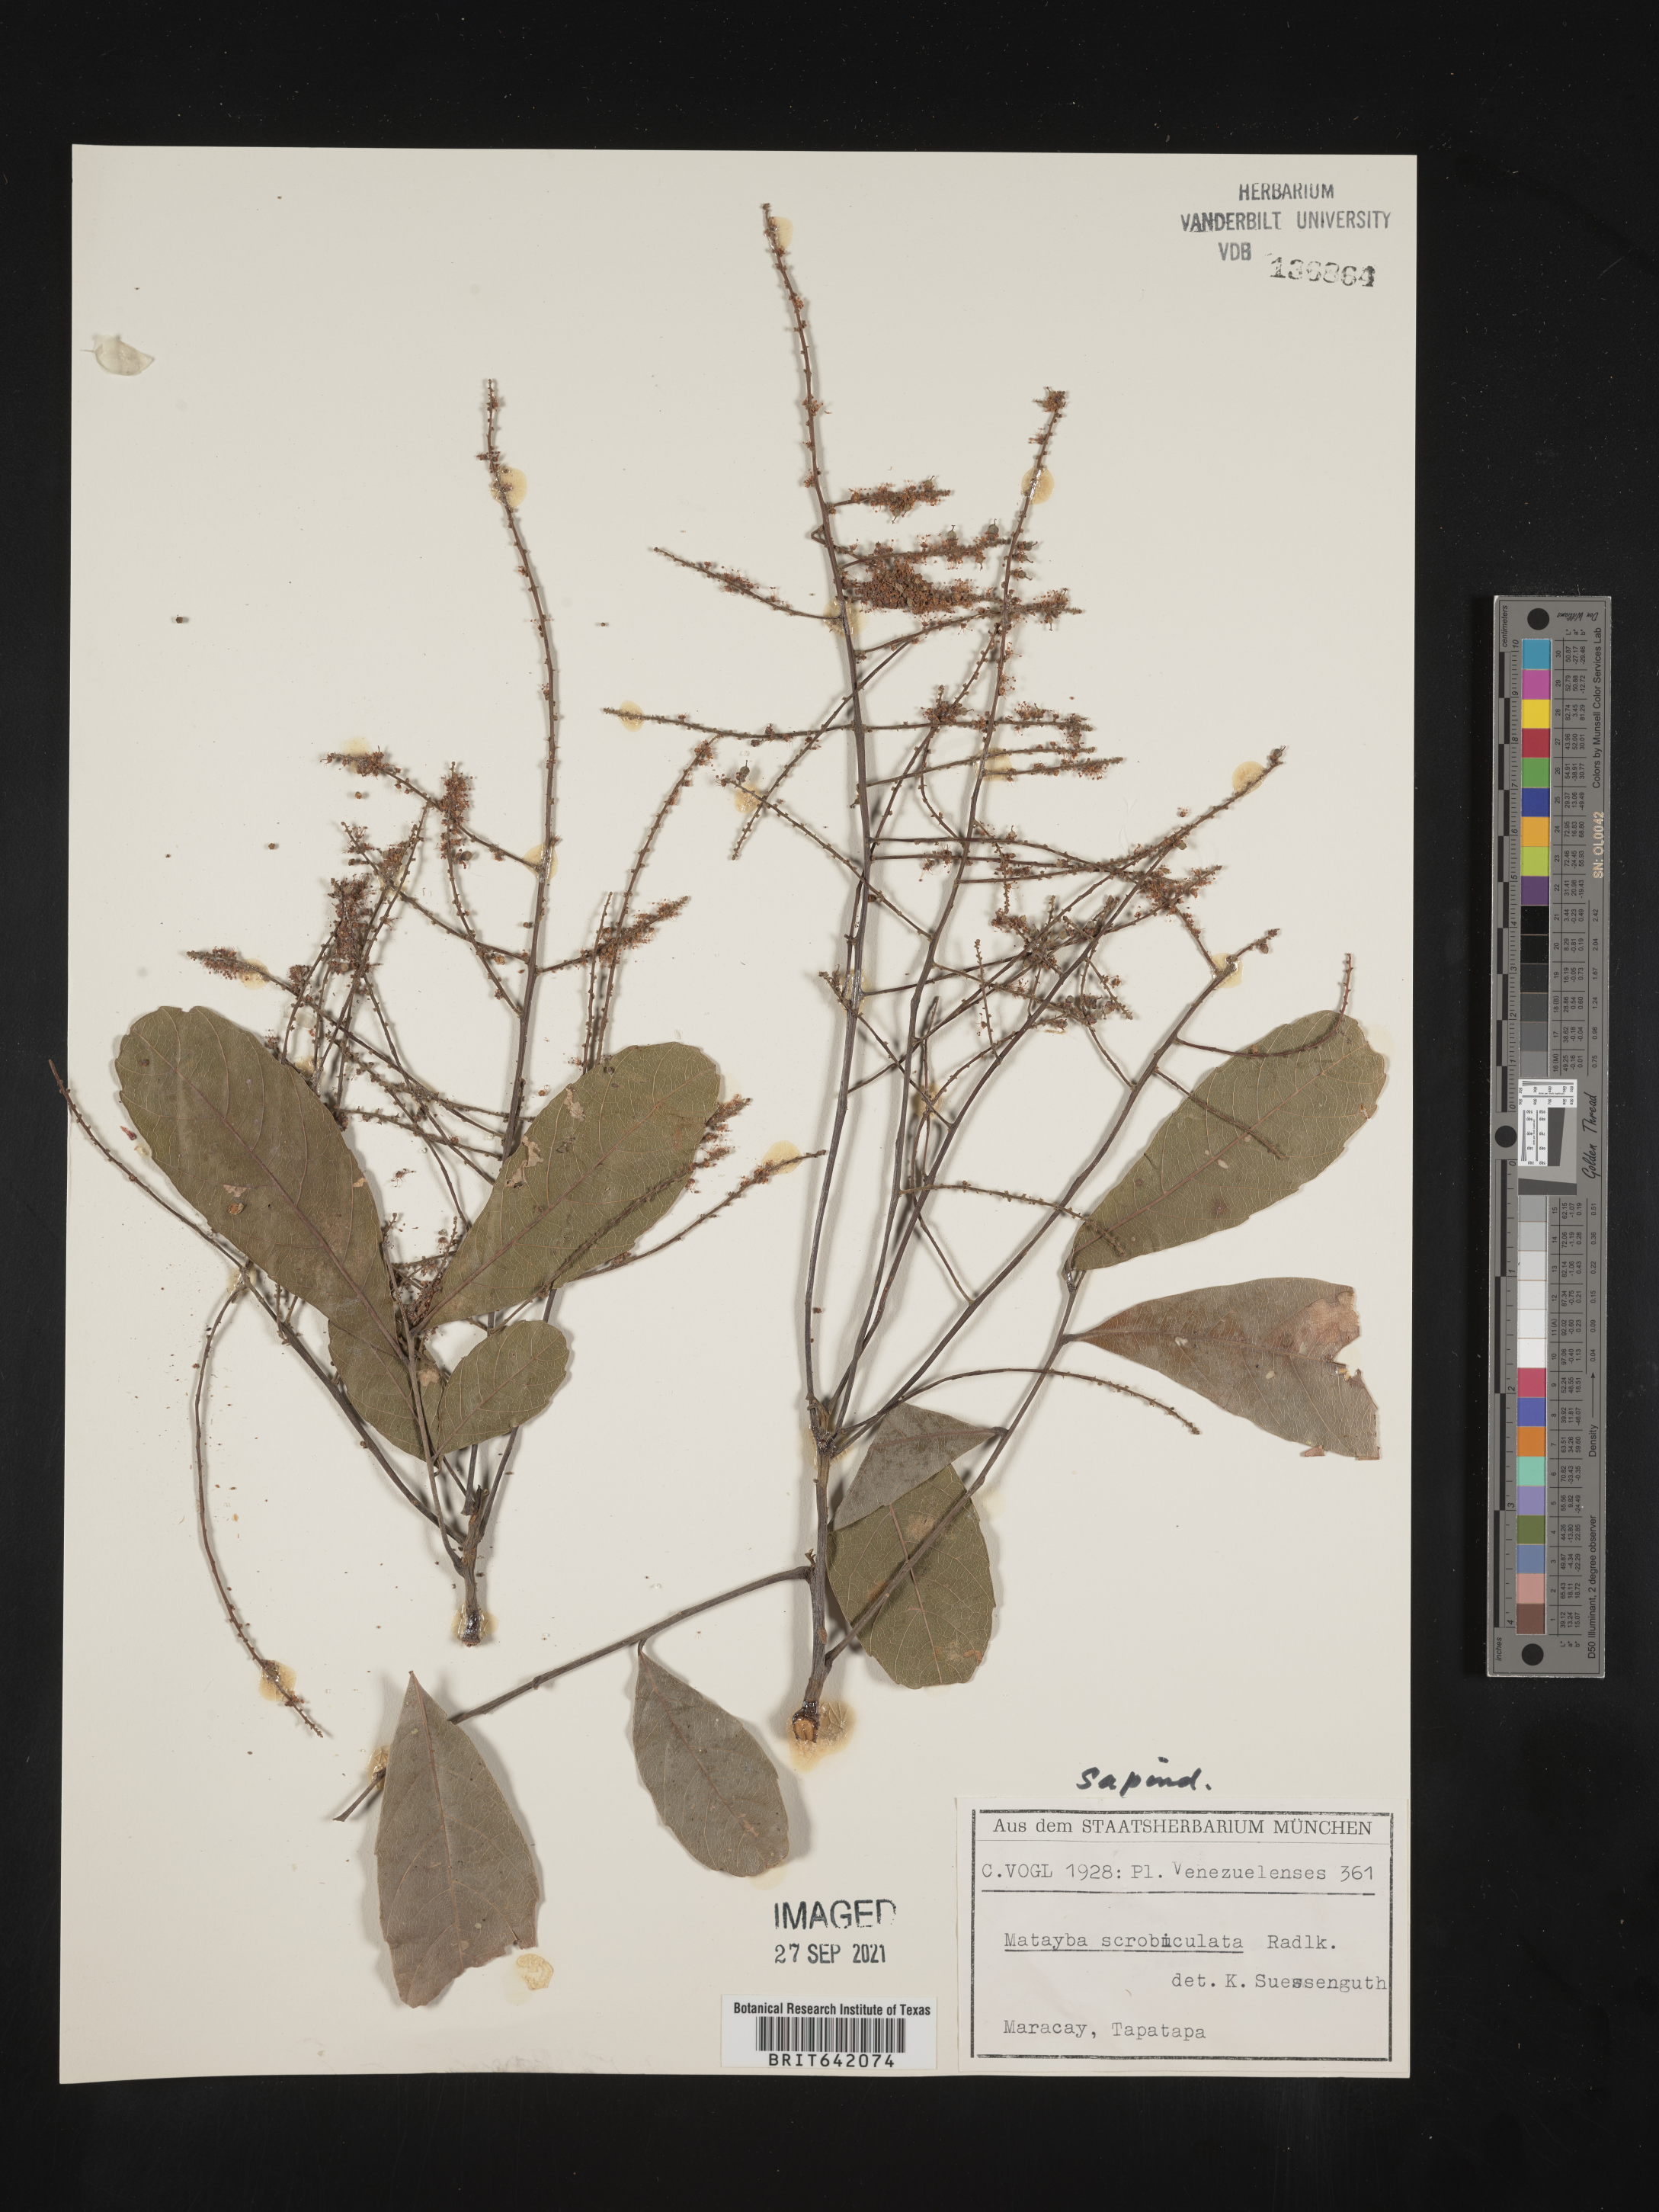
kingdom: Plantae
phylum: Tracheophyta
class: Magnoliopsida
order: Sapindales
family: Sapindaceae
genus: Matayba
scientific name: Matayba
